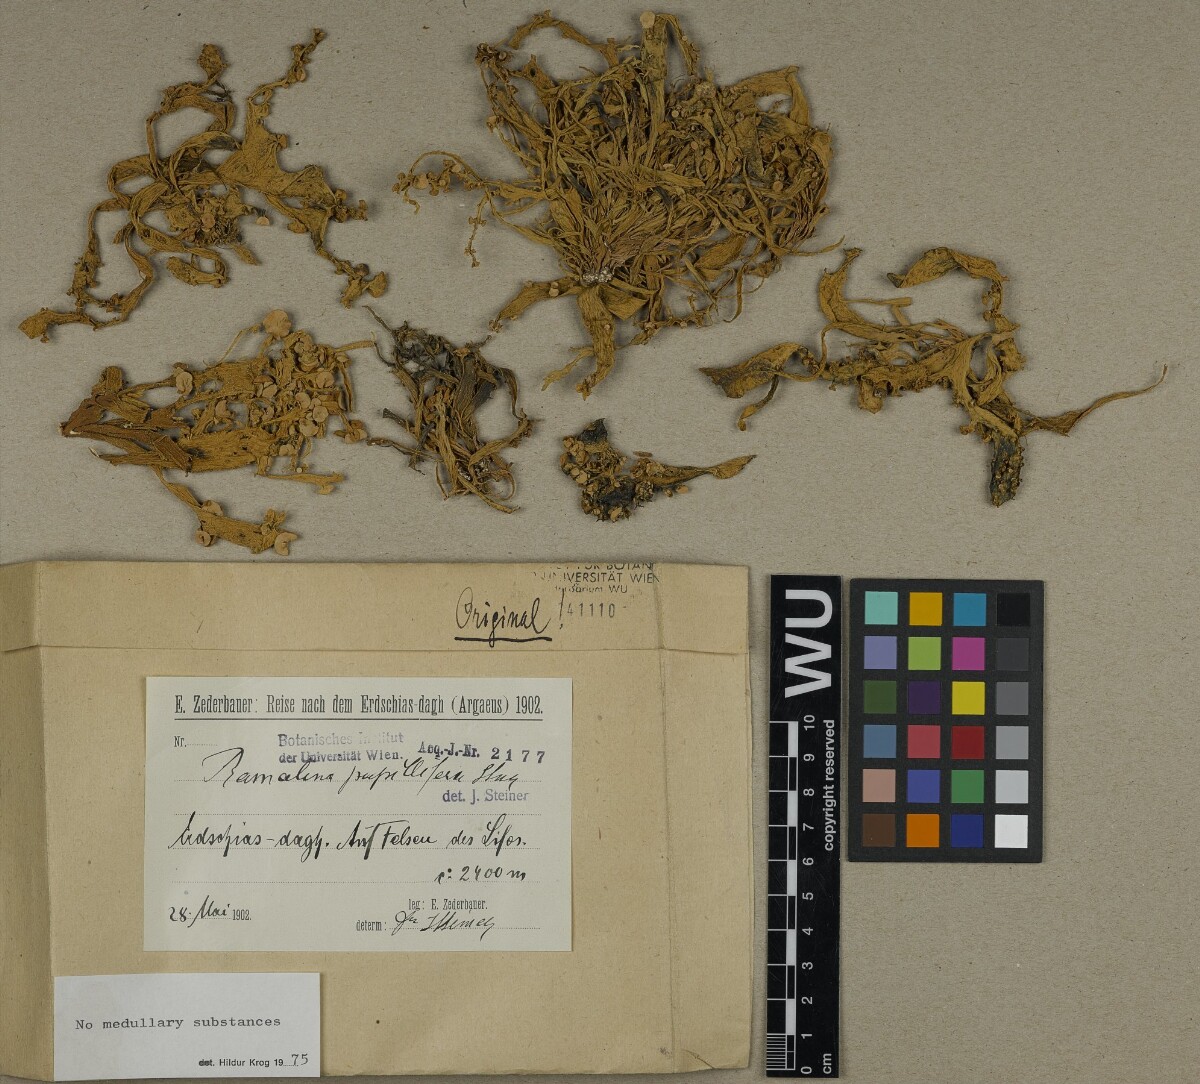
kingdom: Fungi
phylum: Ascomycota
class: Lecanoromycetes
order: Lecanorales
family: Ramalinaceae
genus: Ramalina
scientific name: Ramalina papillifera
